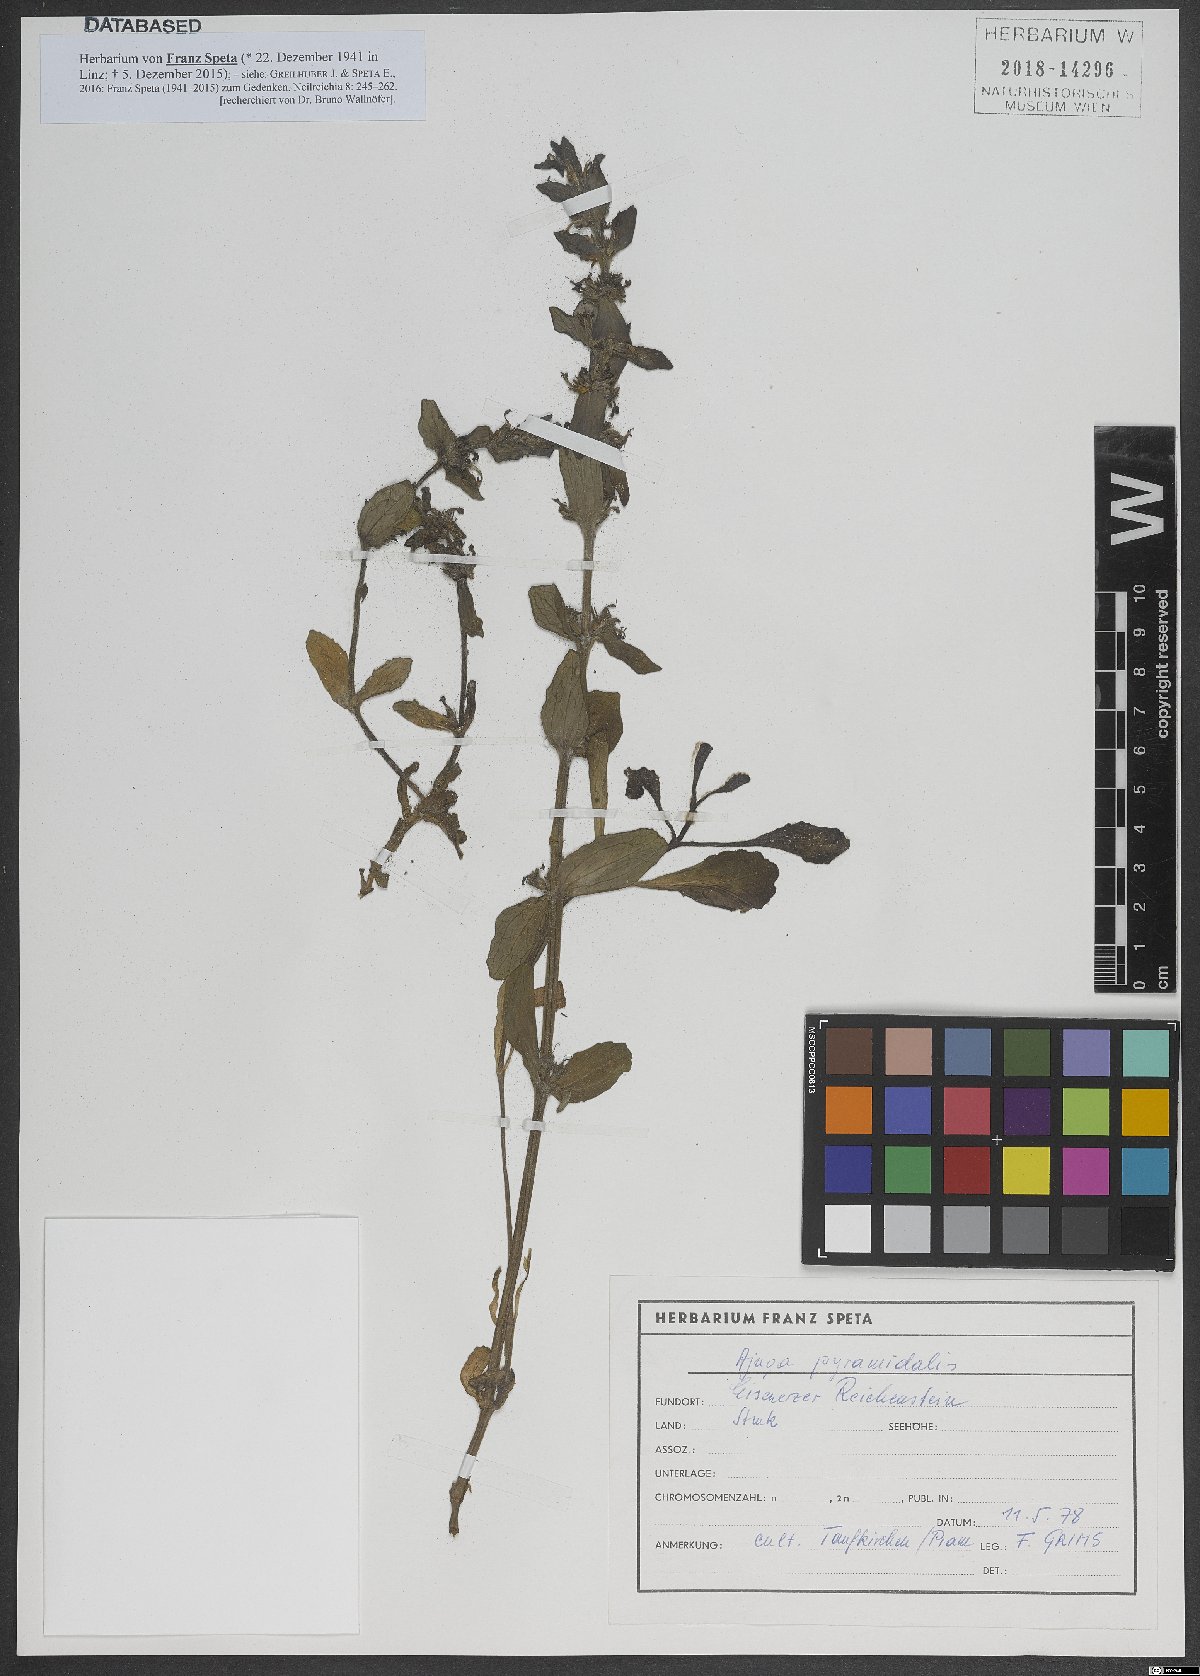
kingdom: Plantae
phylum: Tracheophyta
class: Magnoliopsida
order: Lamiales
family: Lamiaceae
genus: Ajuga
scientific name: Ajuga pyramidalis
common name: Pyramid bugle
